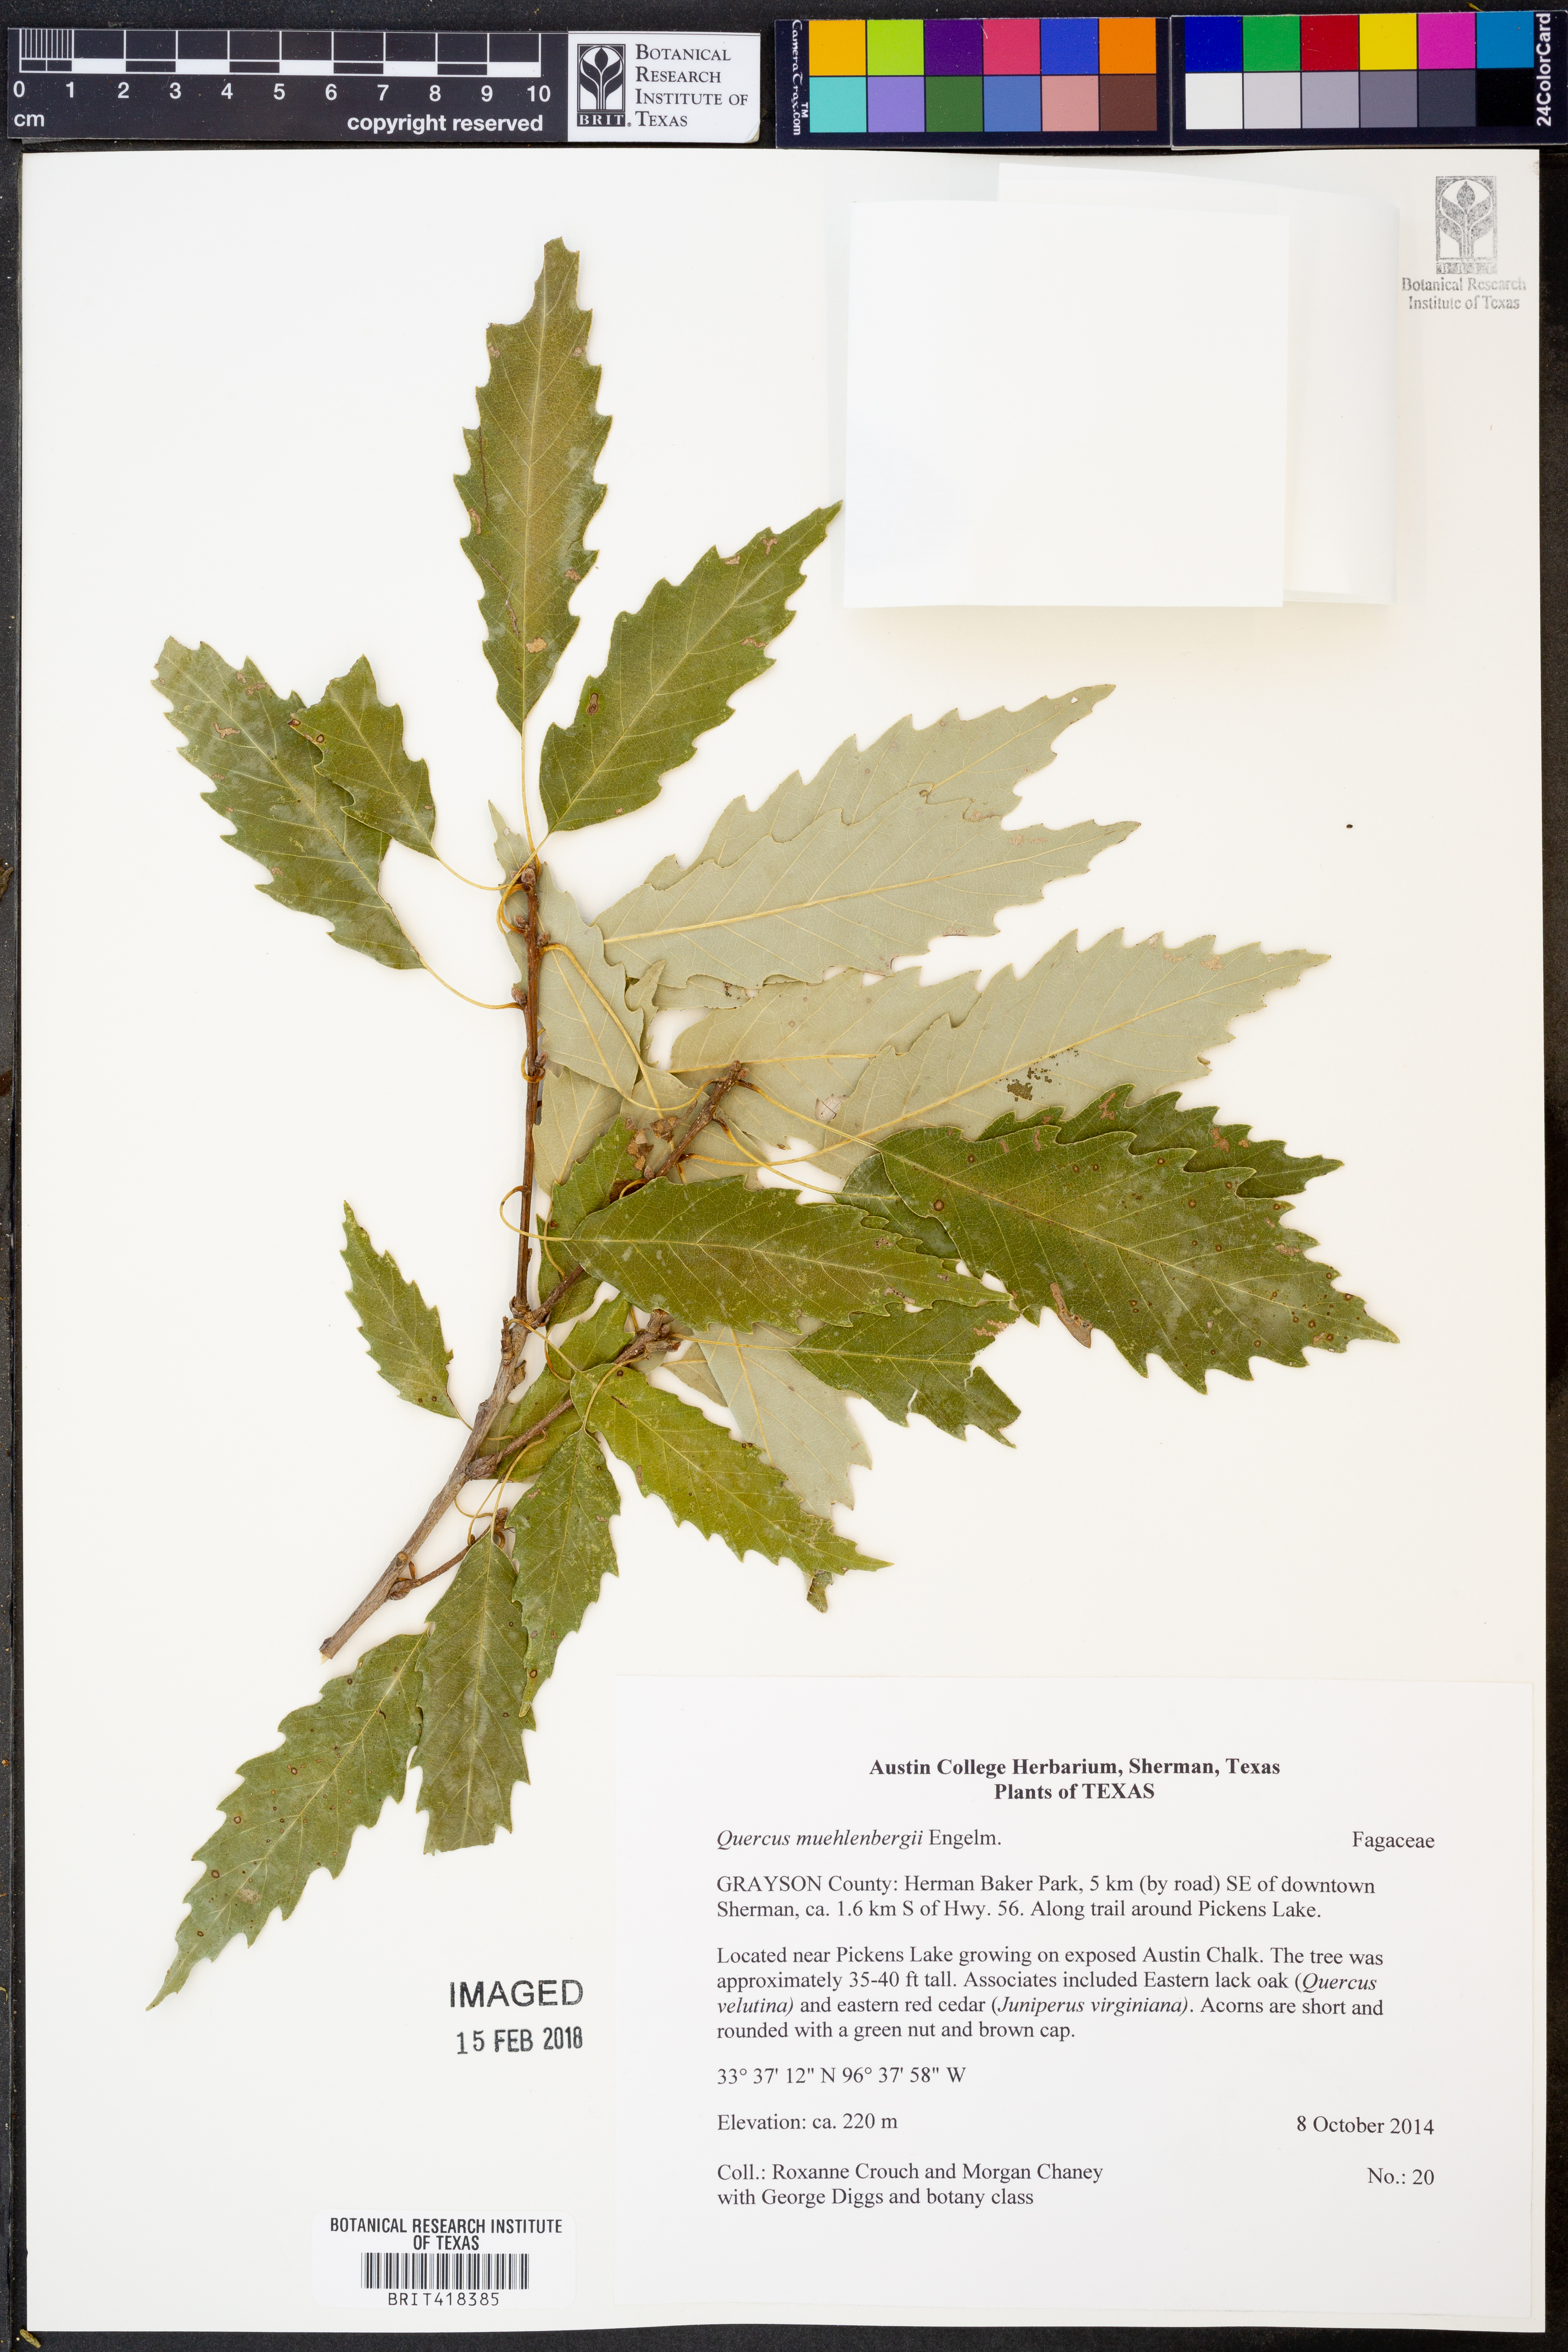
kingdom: Plantae
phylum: Tracheophyta
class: Magnoliopsida
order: Fagales
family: Fagaceae
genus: Quercus
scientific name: Quercus muehlenbergii
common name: Chinkapin oak
